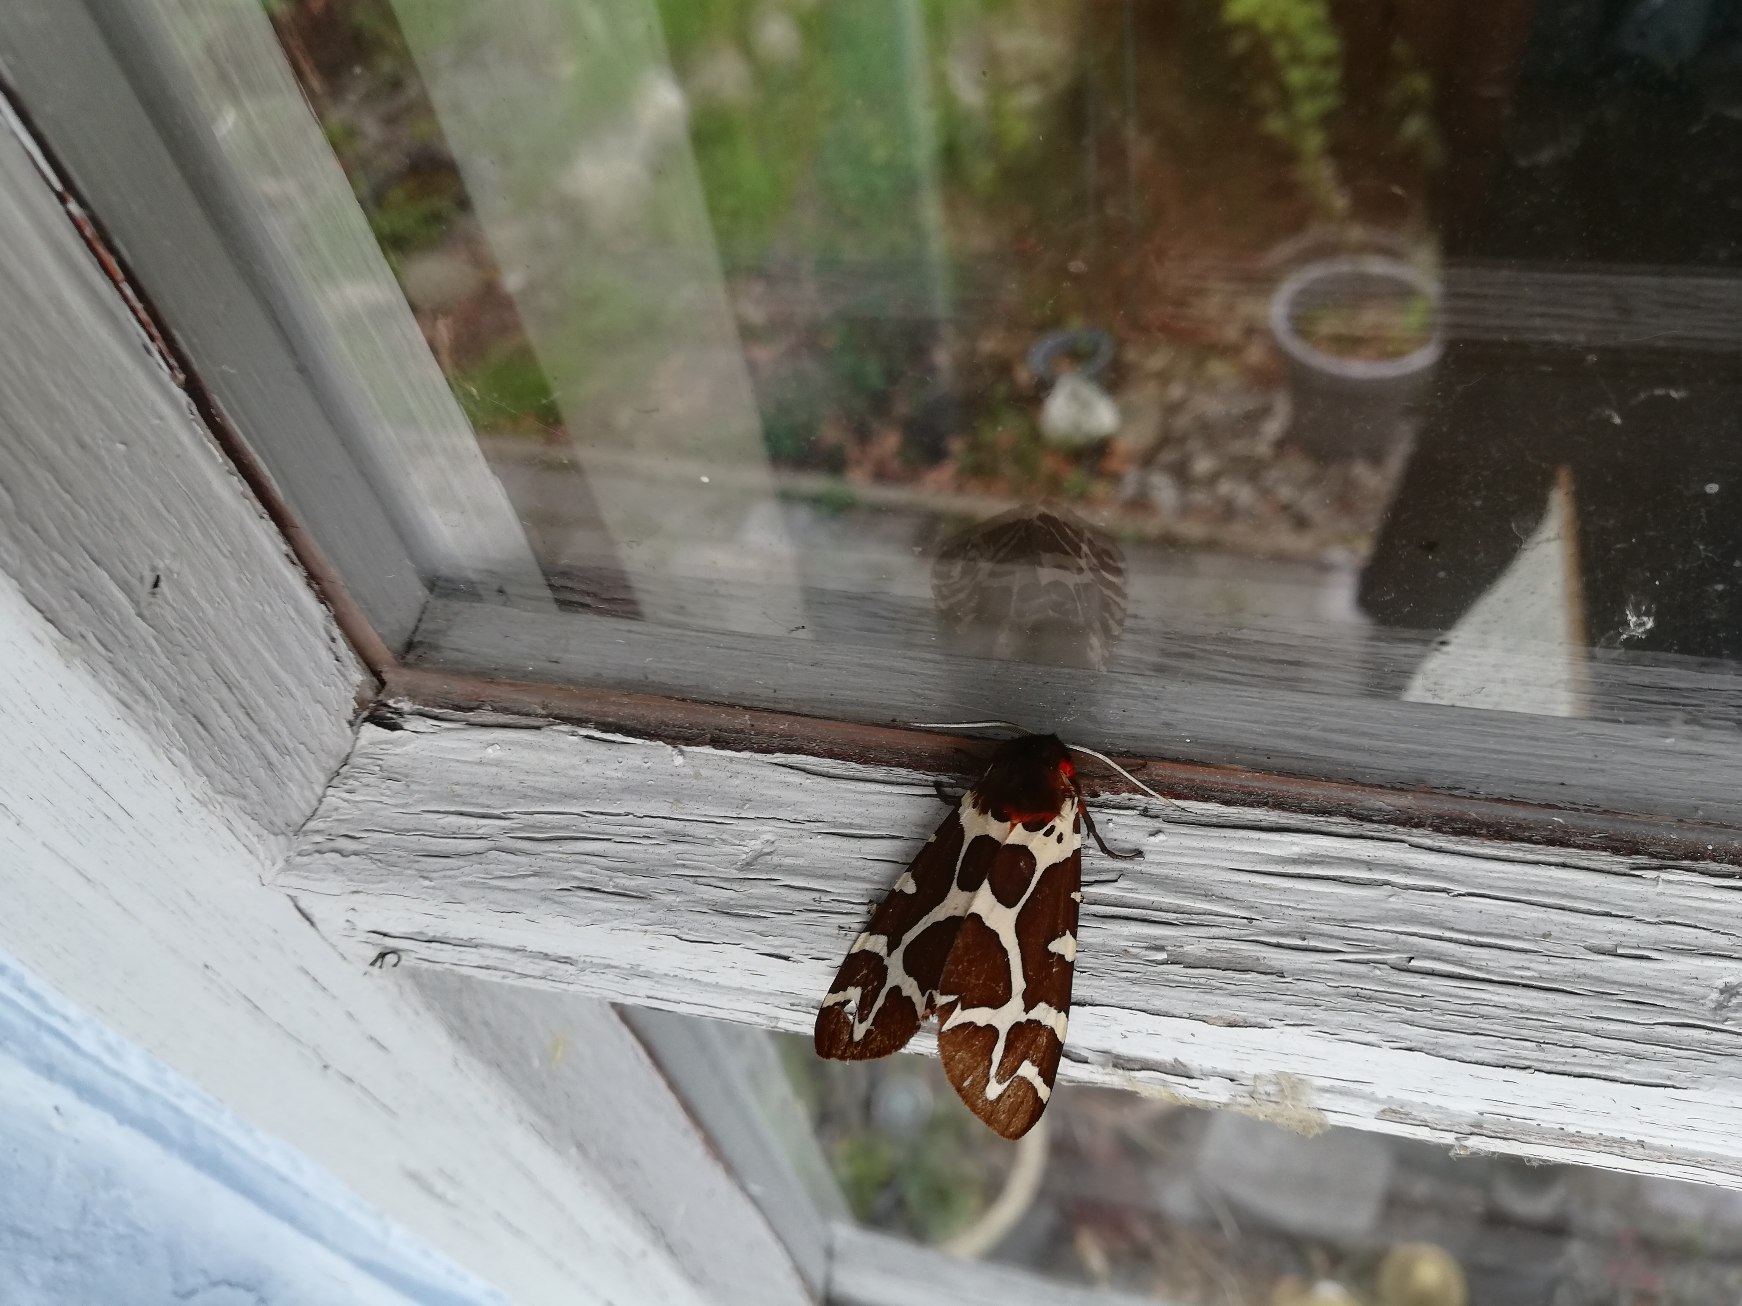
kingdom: Animalia
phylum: Arthropoda
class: Insecta
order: Lepidoptera
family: Erebidae
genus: Arctia
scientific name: Arctia caja
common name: Brun bjørn
